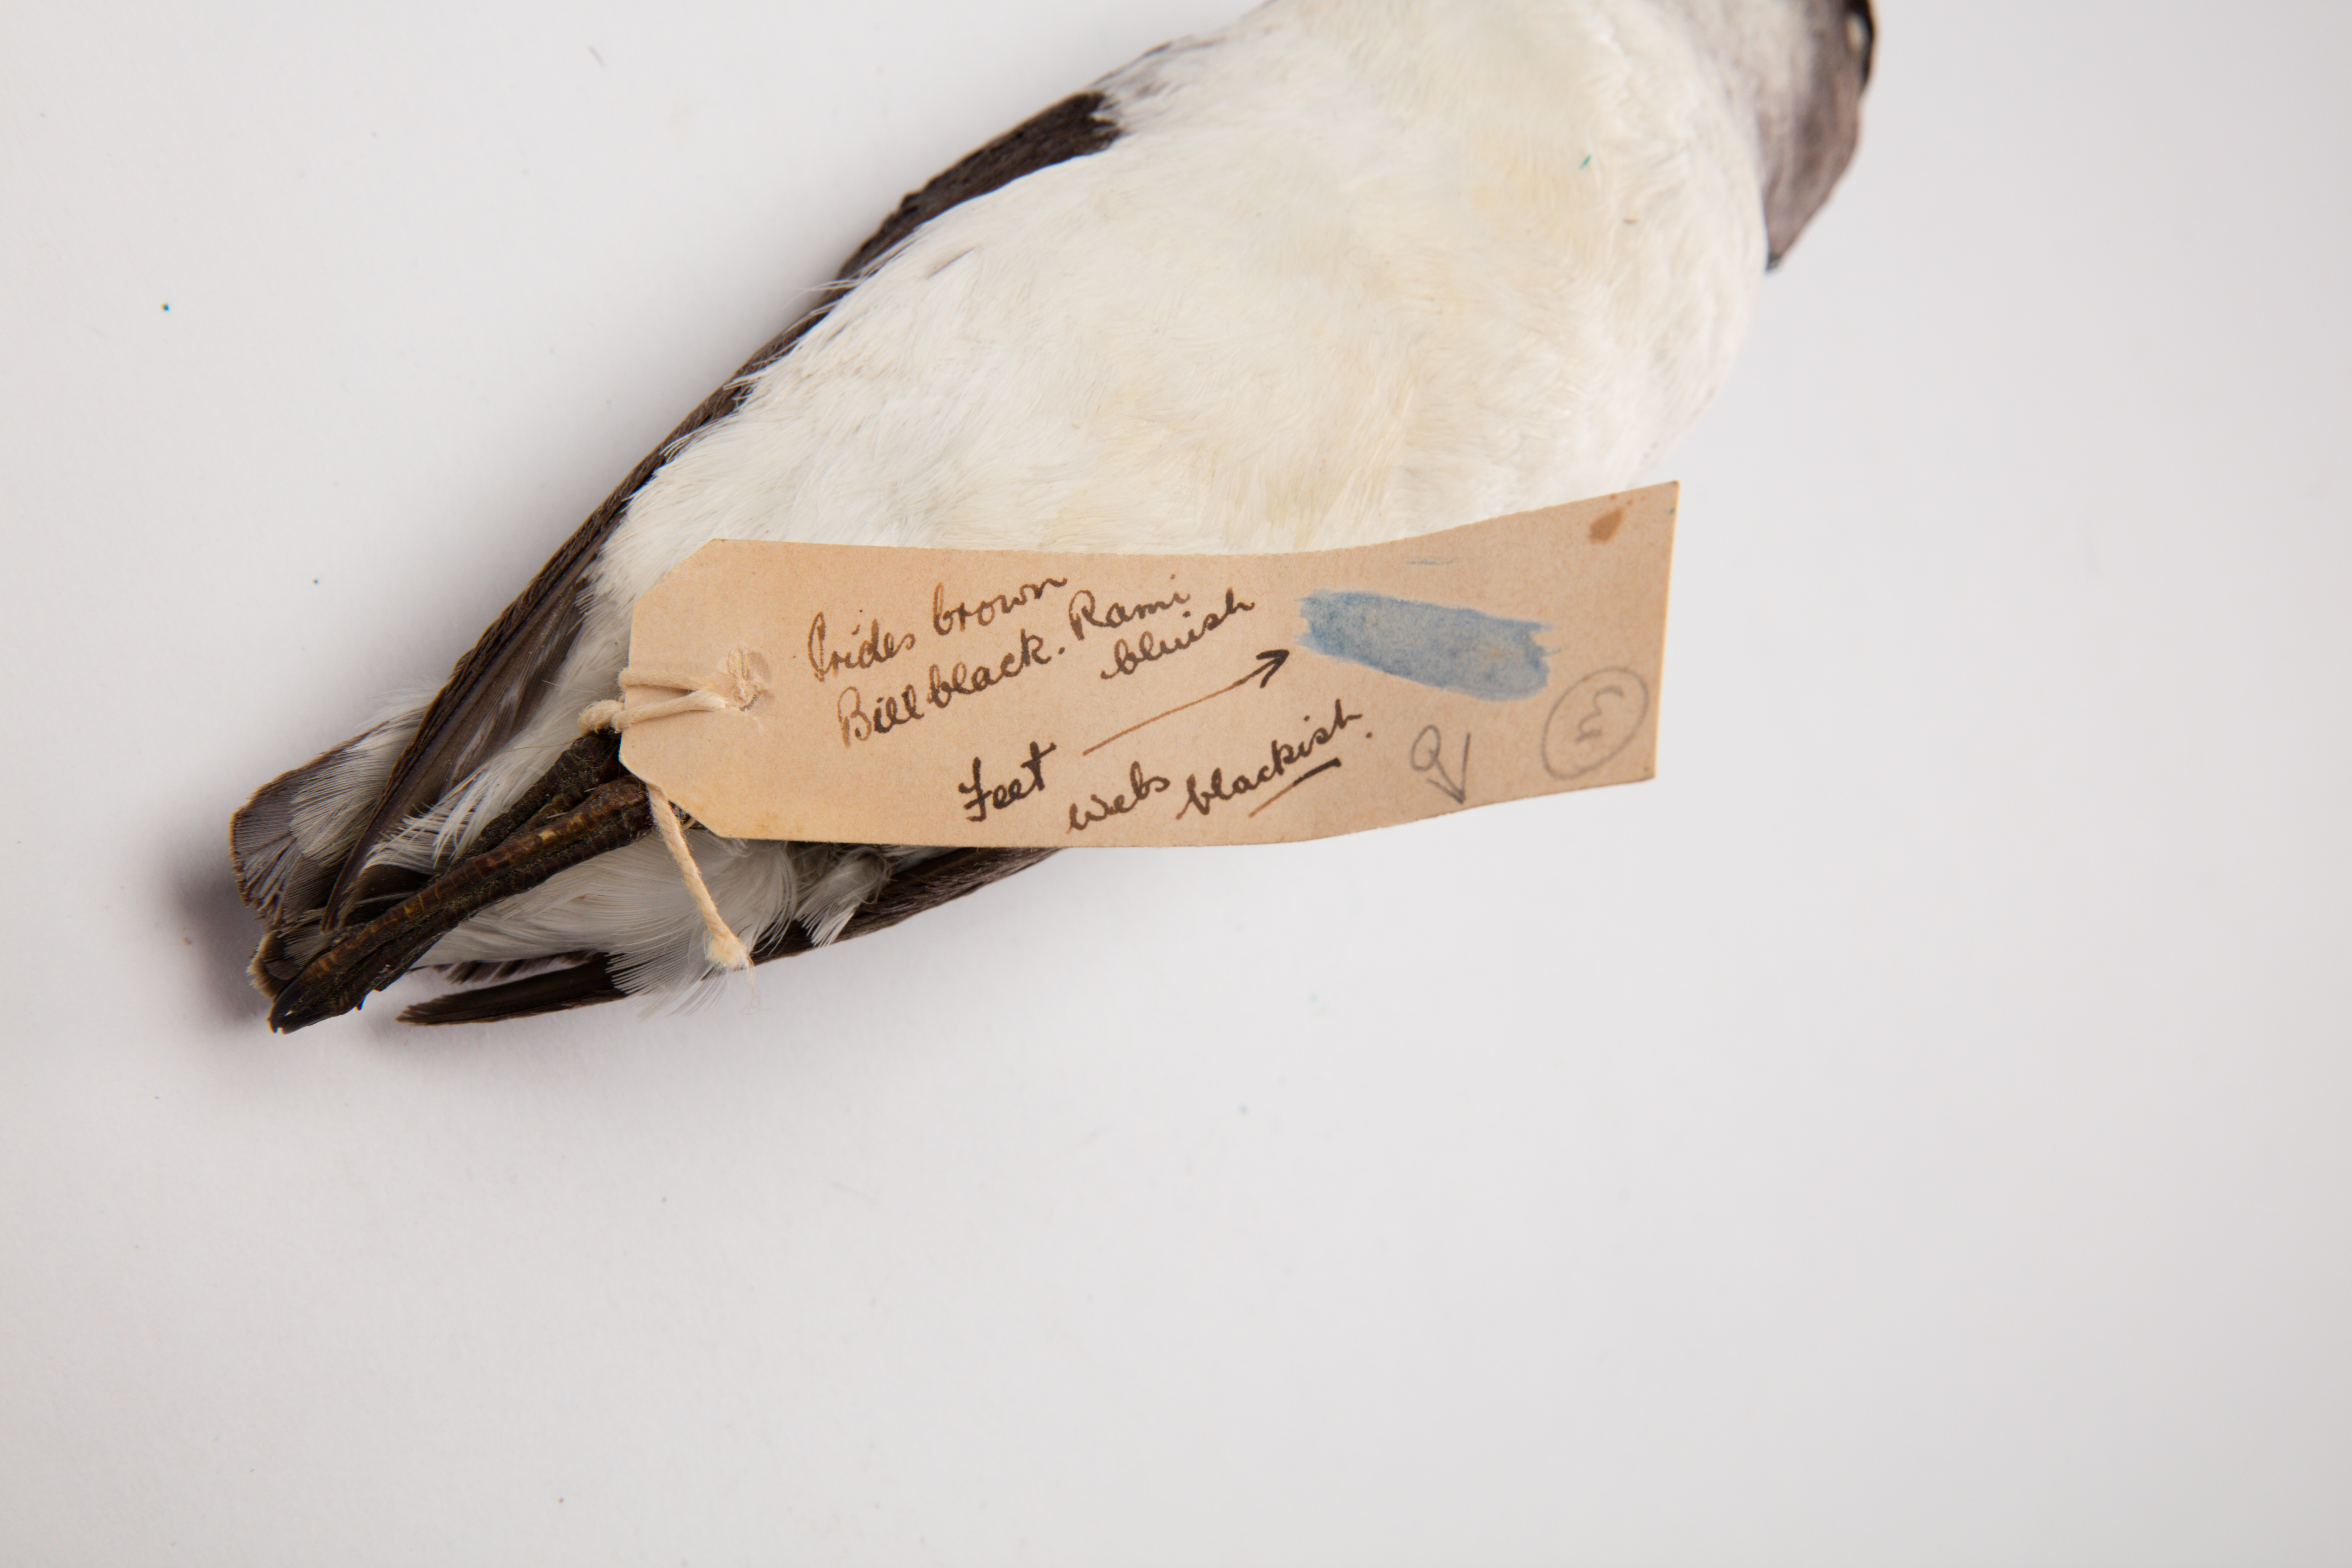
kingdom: Animalia
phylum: Chordata
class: Aves
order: Procellariiformes
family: Pelecanoididae
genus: Pelecanoides
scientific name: Pelecanoides urinatrix
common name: Common diving-petrel
